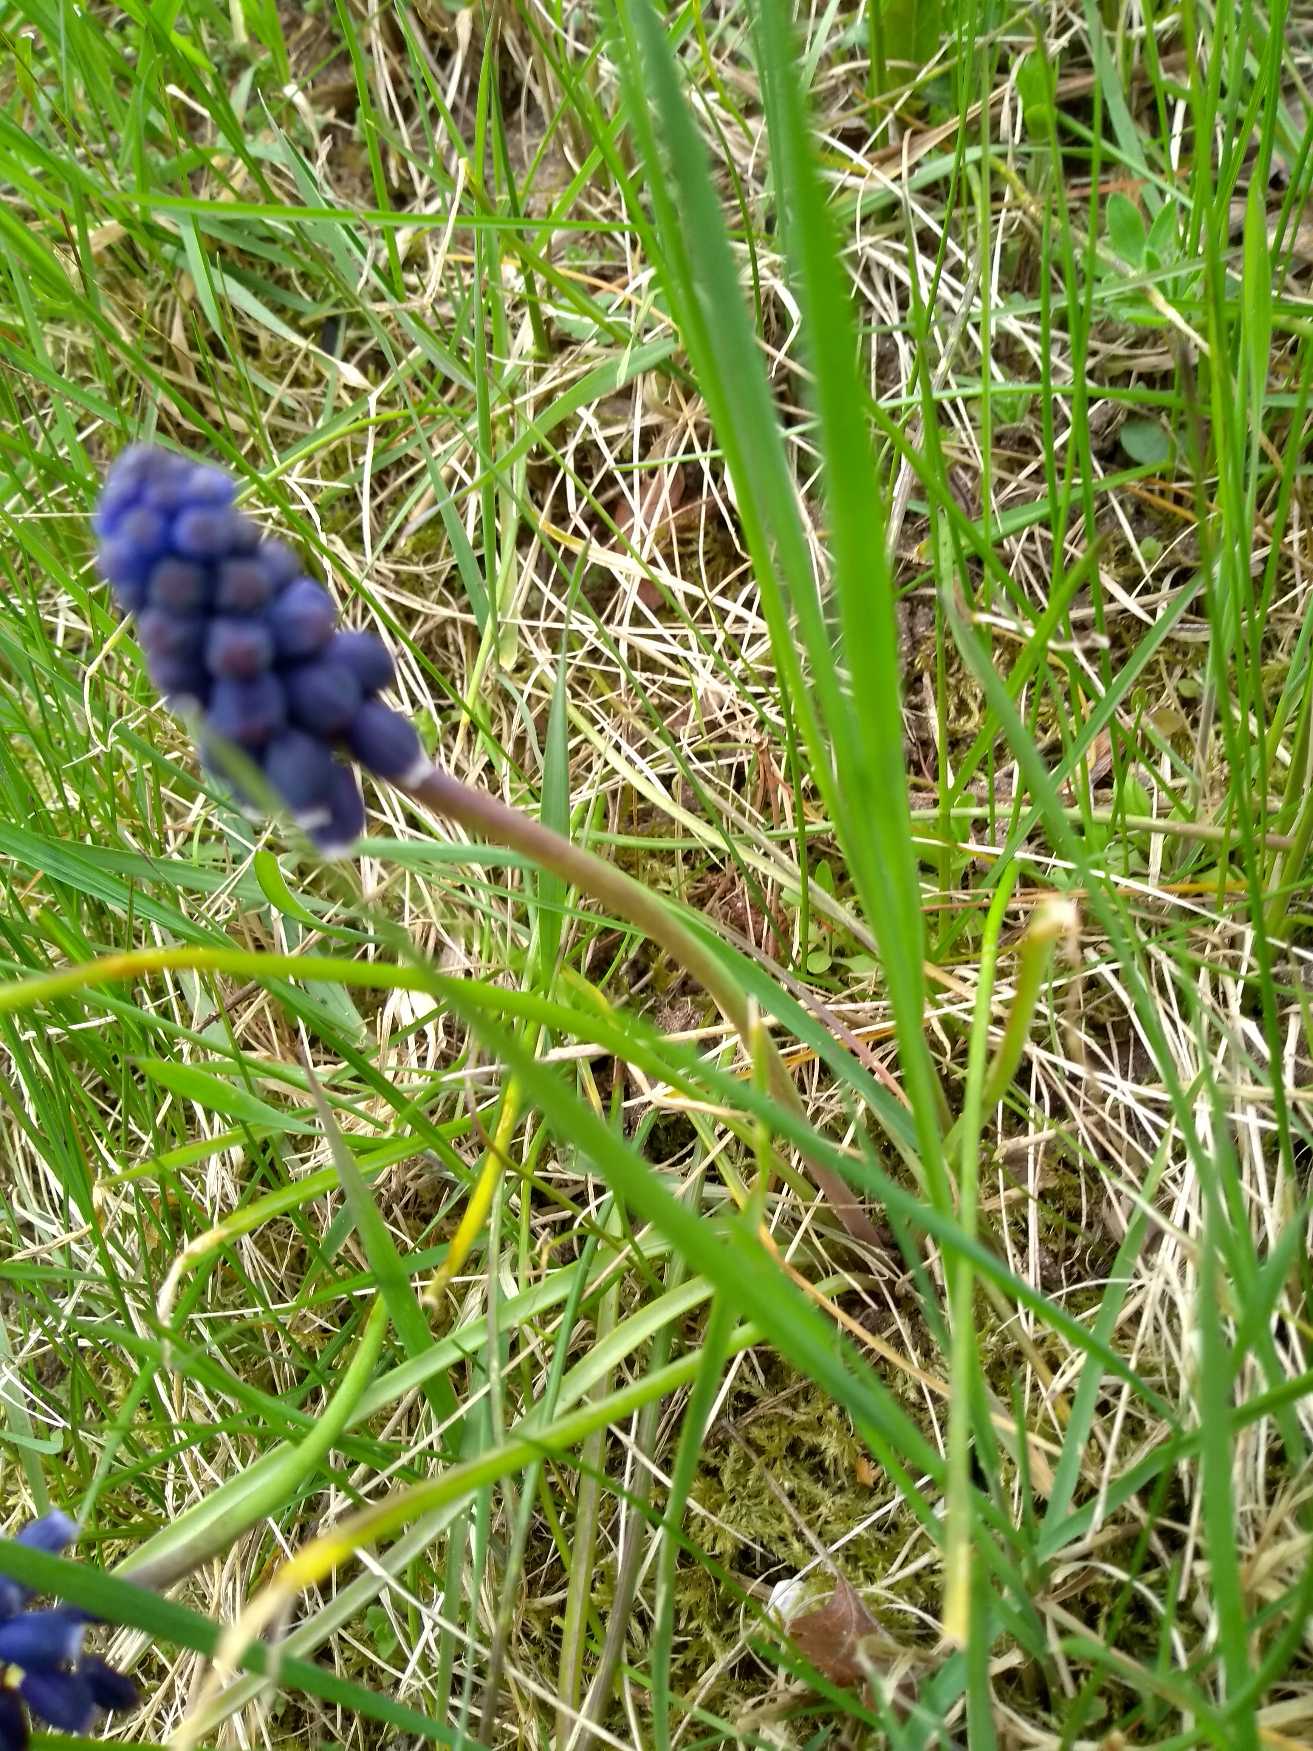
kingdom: Plantae
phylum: Tracheophyta
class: Liliopsida
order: Asparagales
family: Asparagaceae
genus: Muscari
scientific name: Muscari armeniacum
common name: Armensk perlehyacint
